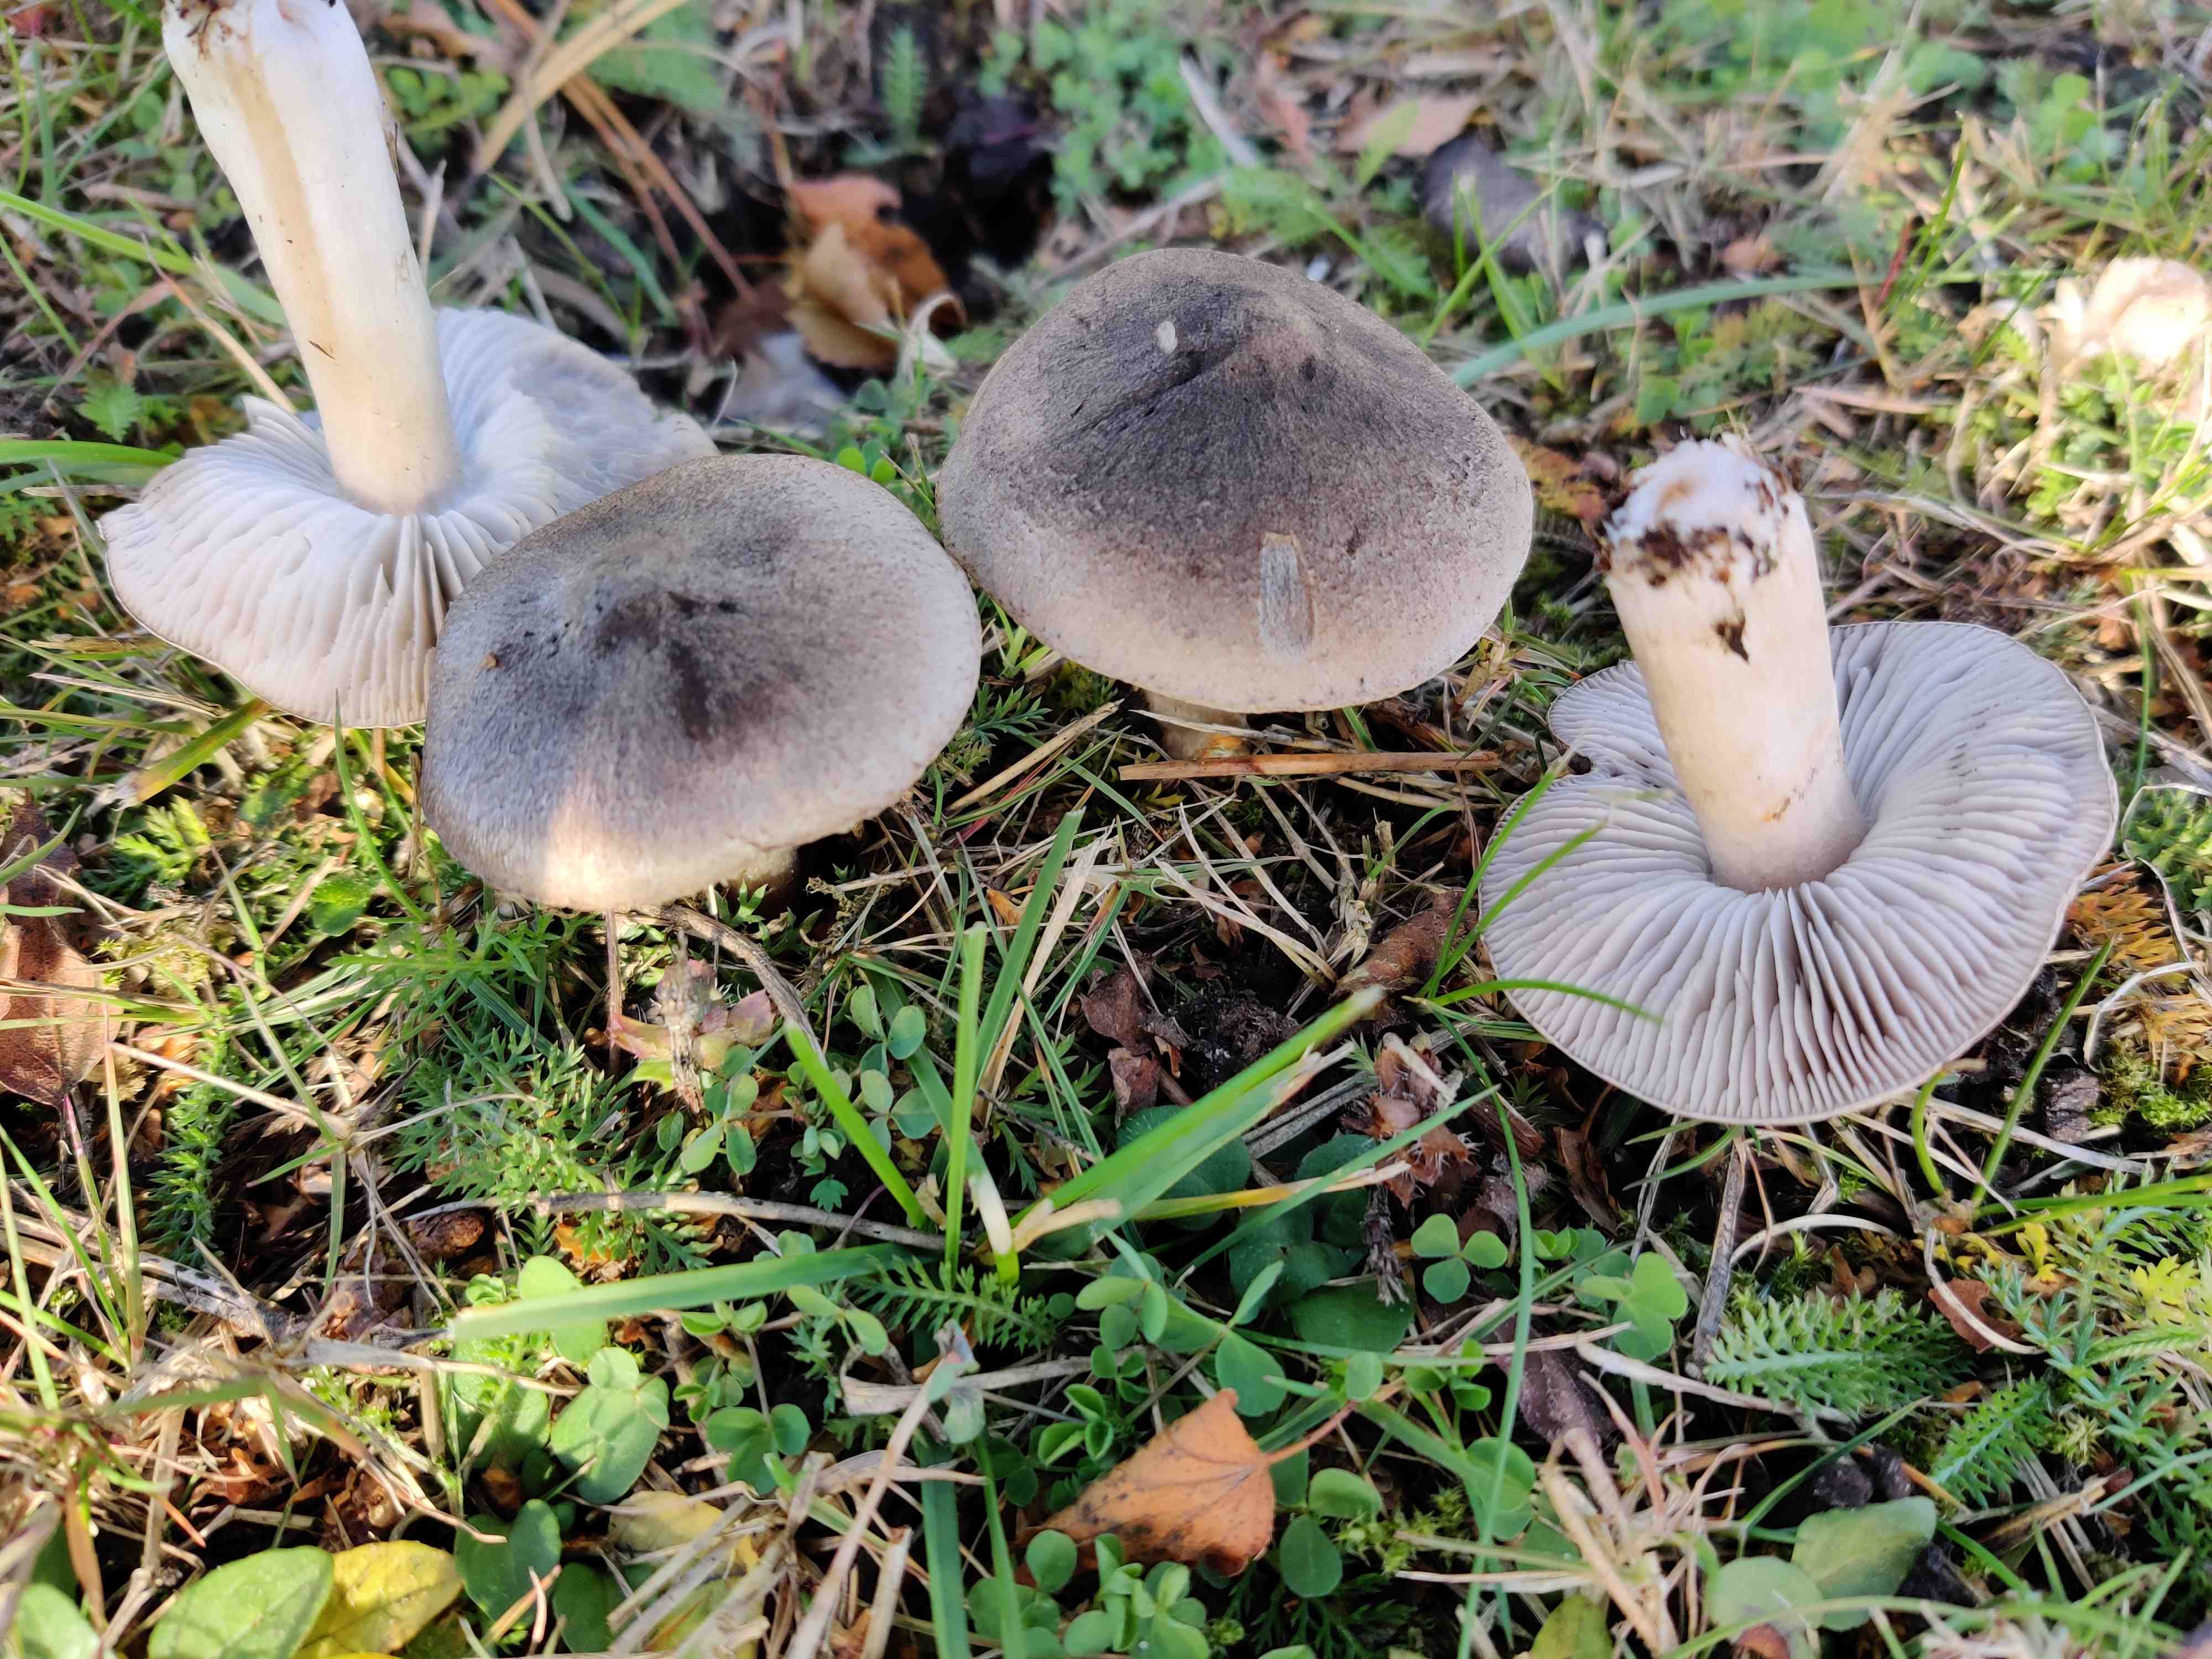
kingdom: Fungi
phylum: Basidiomycota
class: Agaricomycetes
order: Agaricales
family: Tricholomataceae
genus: Tricholoma
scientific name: Tricholoma terreum
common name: jordfarvet ridderhat
